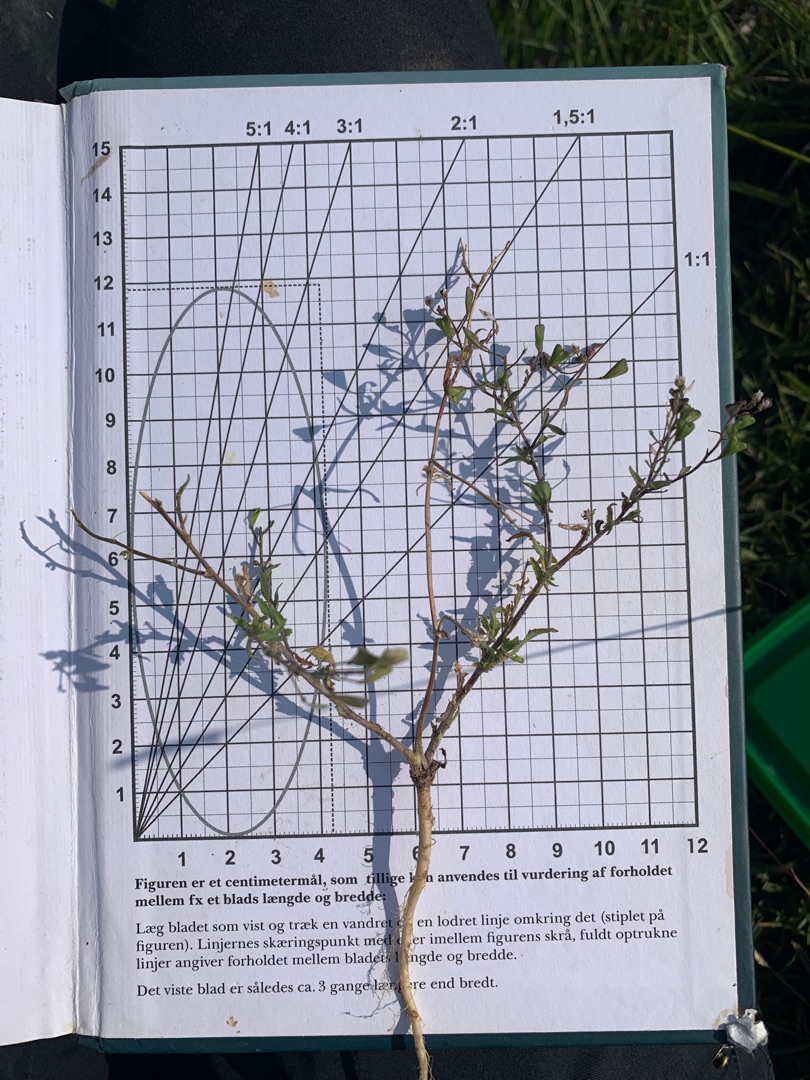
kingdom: Plantae
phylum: Tracheophyta
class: Magnoliopsida
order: Brassicales
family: Brassicaceae
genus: Capsella
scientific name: Capsella bursa-pastoris
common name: Hyrdetaske
